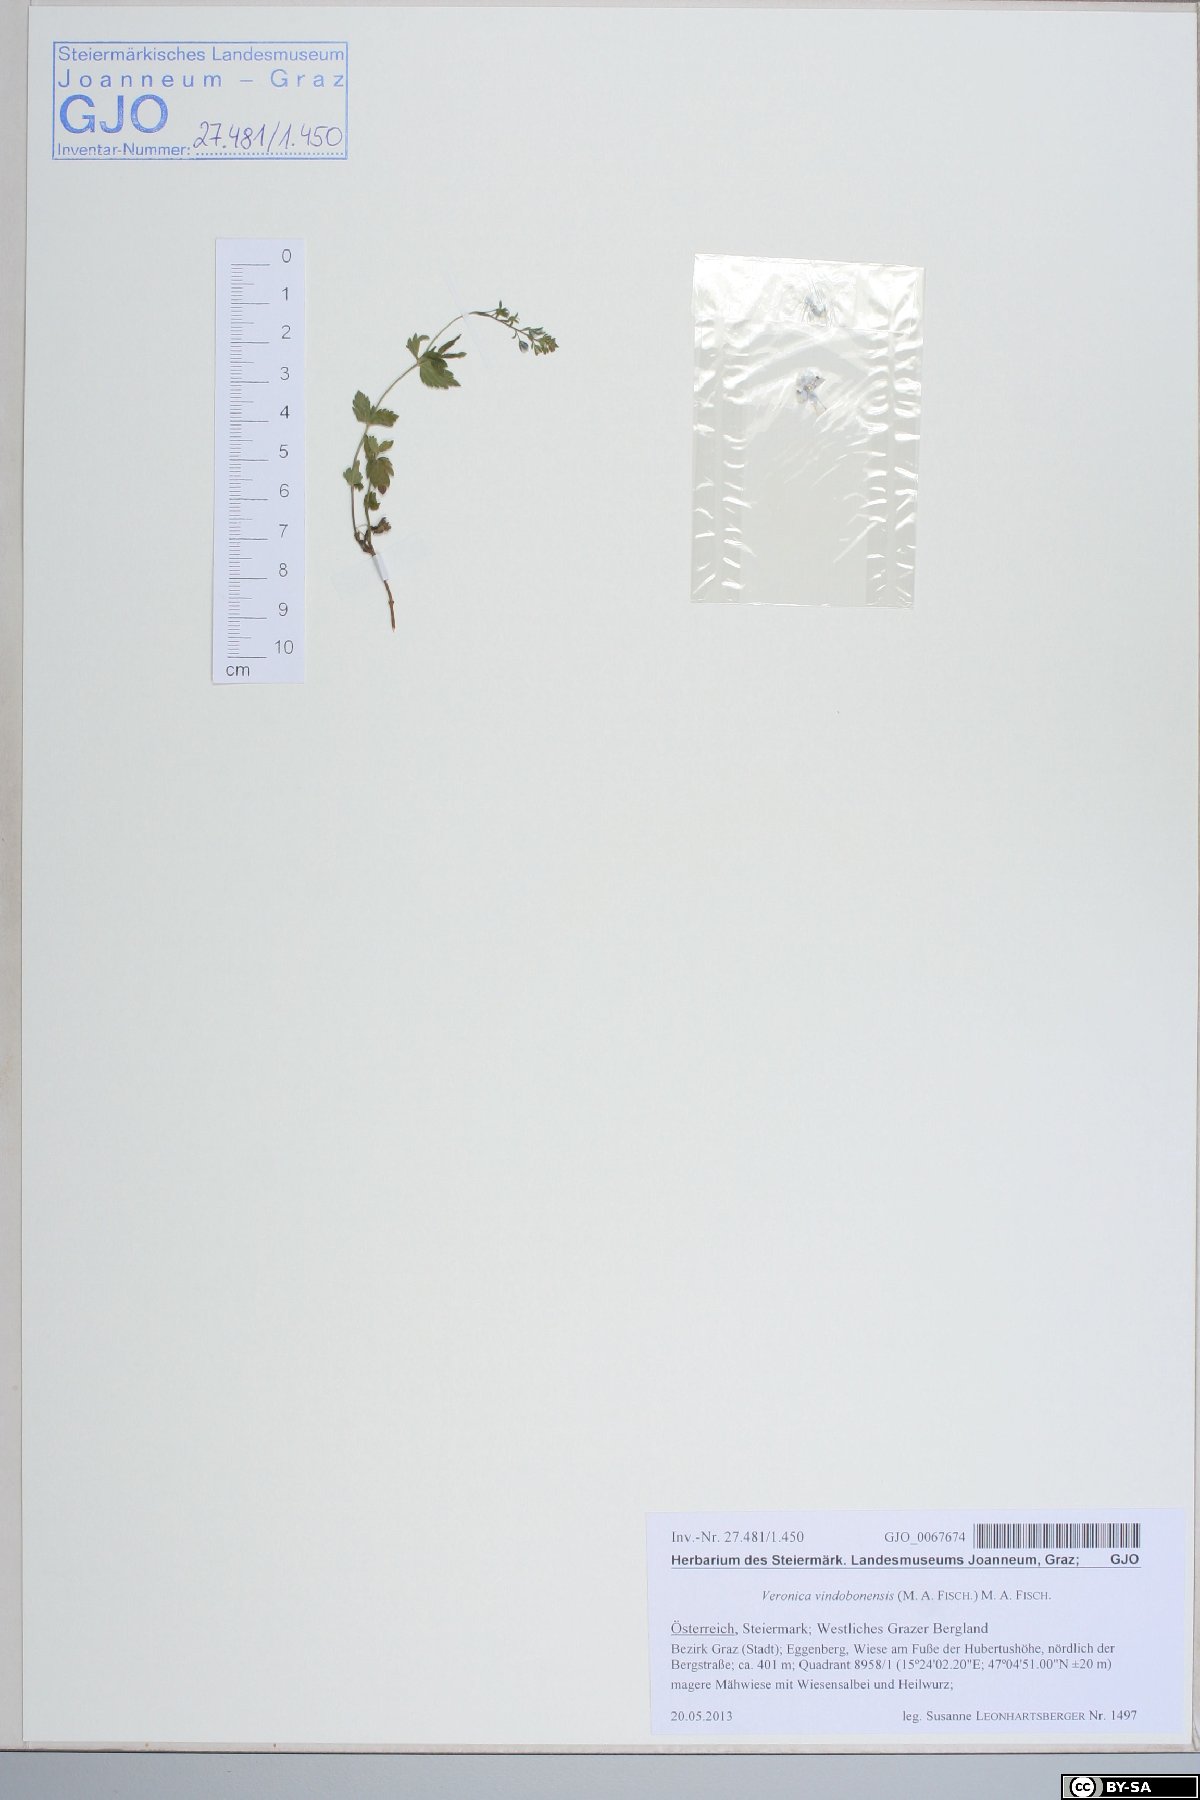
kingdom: Plantae
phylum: Tracheophyta
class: Magnoliopsida
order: Lamiales
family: Plantaginaceae
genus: Veronica
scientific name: Veronica vindobonensis
